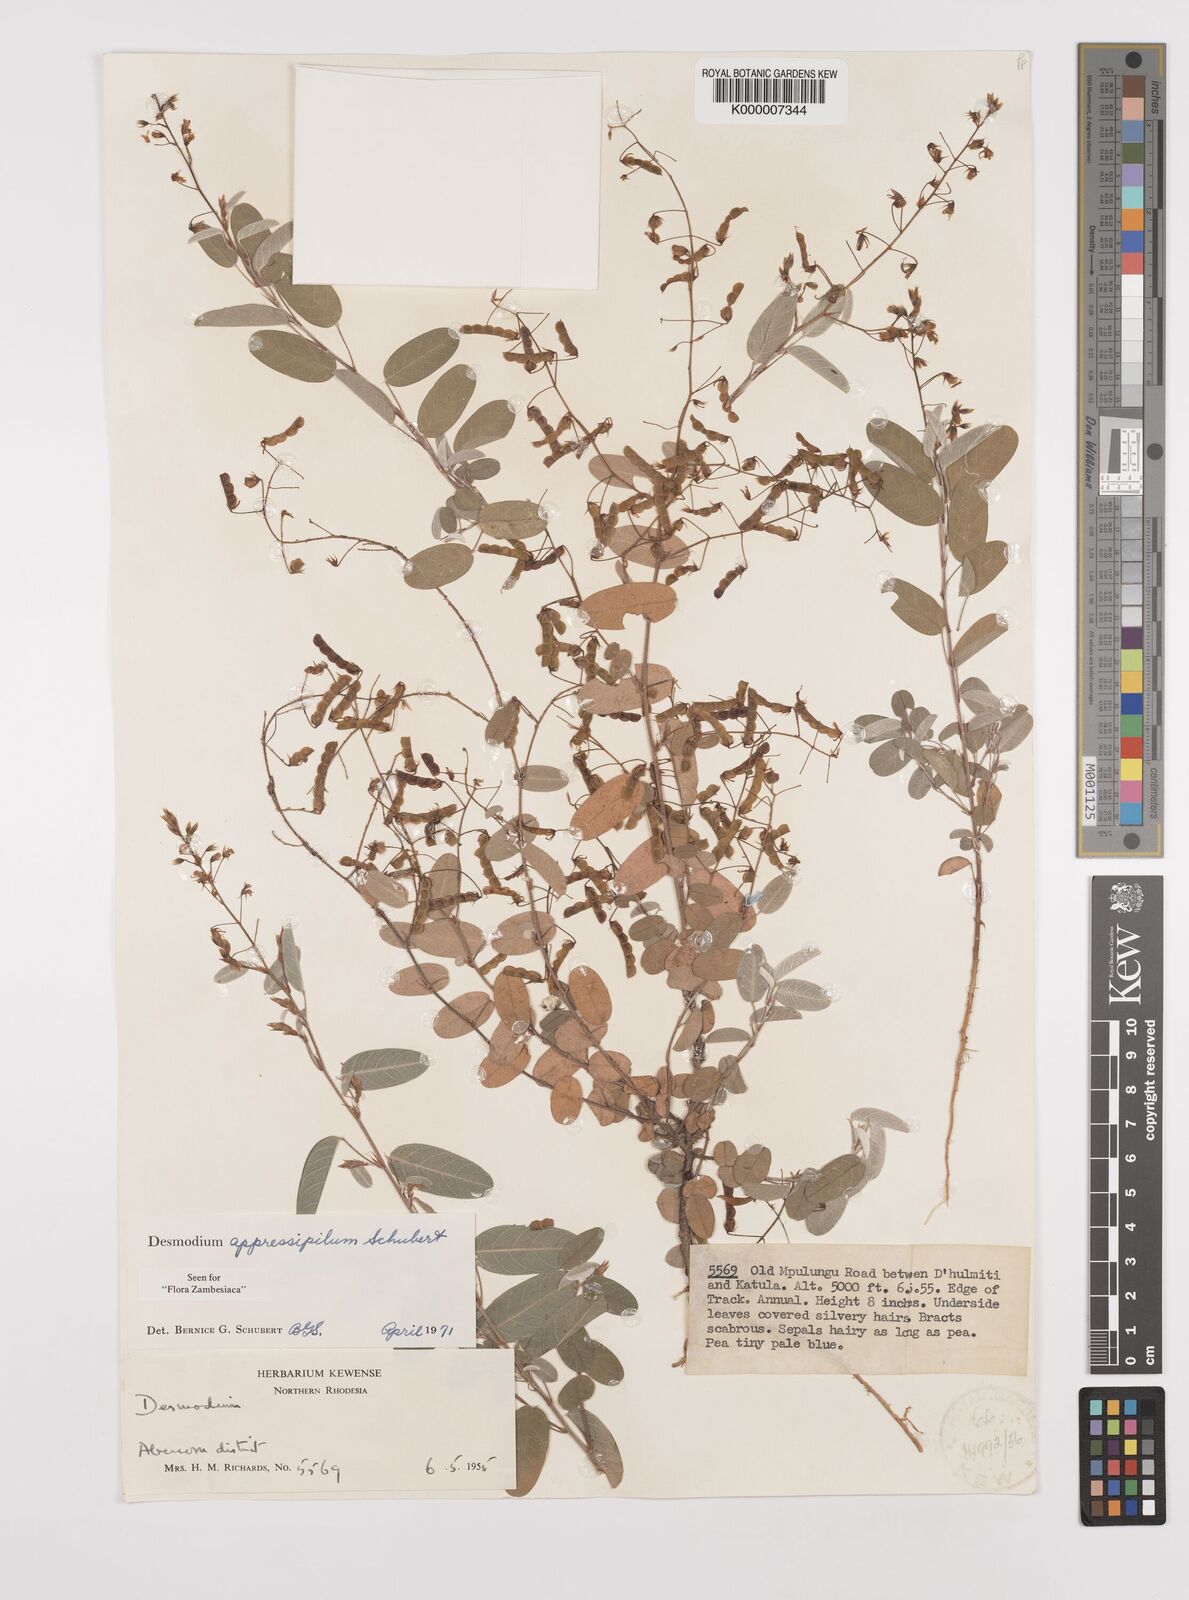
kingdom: Plantae
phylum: Tracheophyta
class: Magnoliopsida
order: Fabales
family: Fabaceae
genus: Grona
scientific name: Grona appressipila
